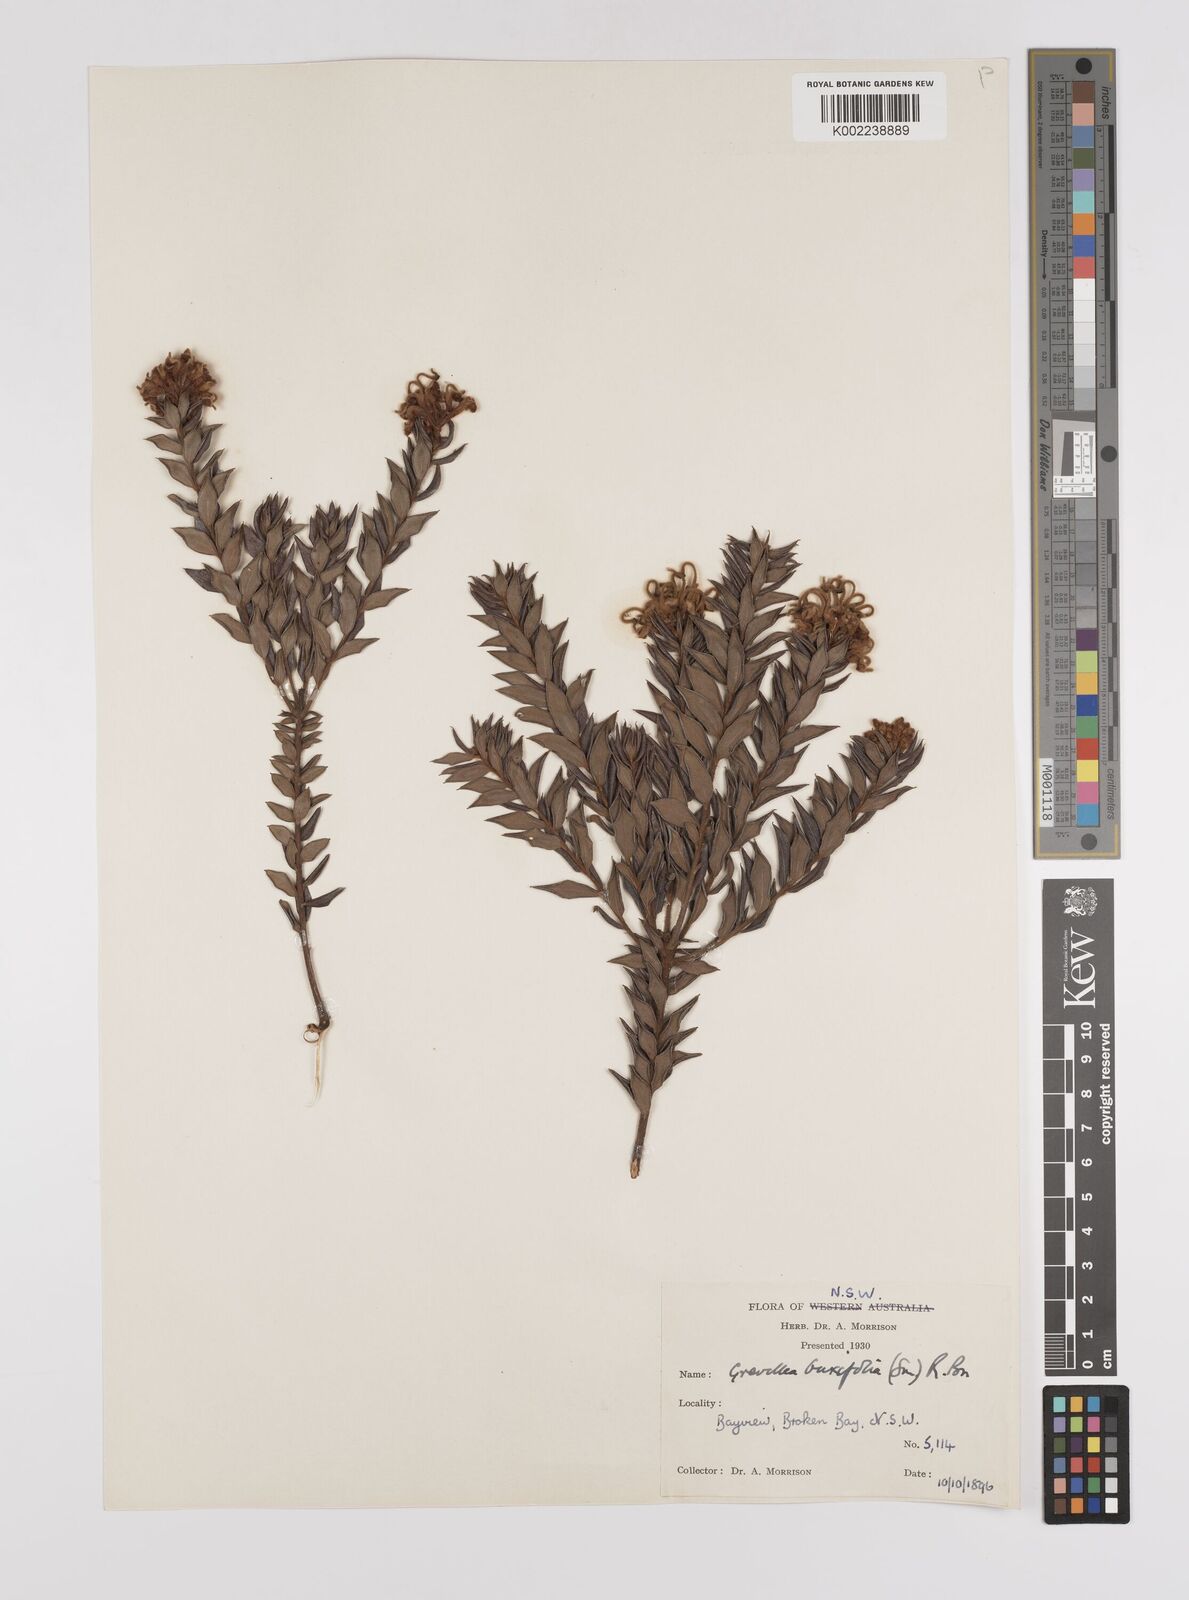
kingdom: Plantae
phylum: Tracheophyta
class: Magnoliopsida
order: Proteales
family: Proteaceae
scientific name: Proteaceae
